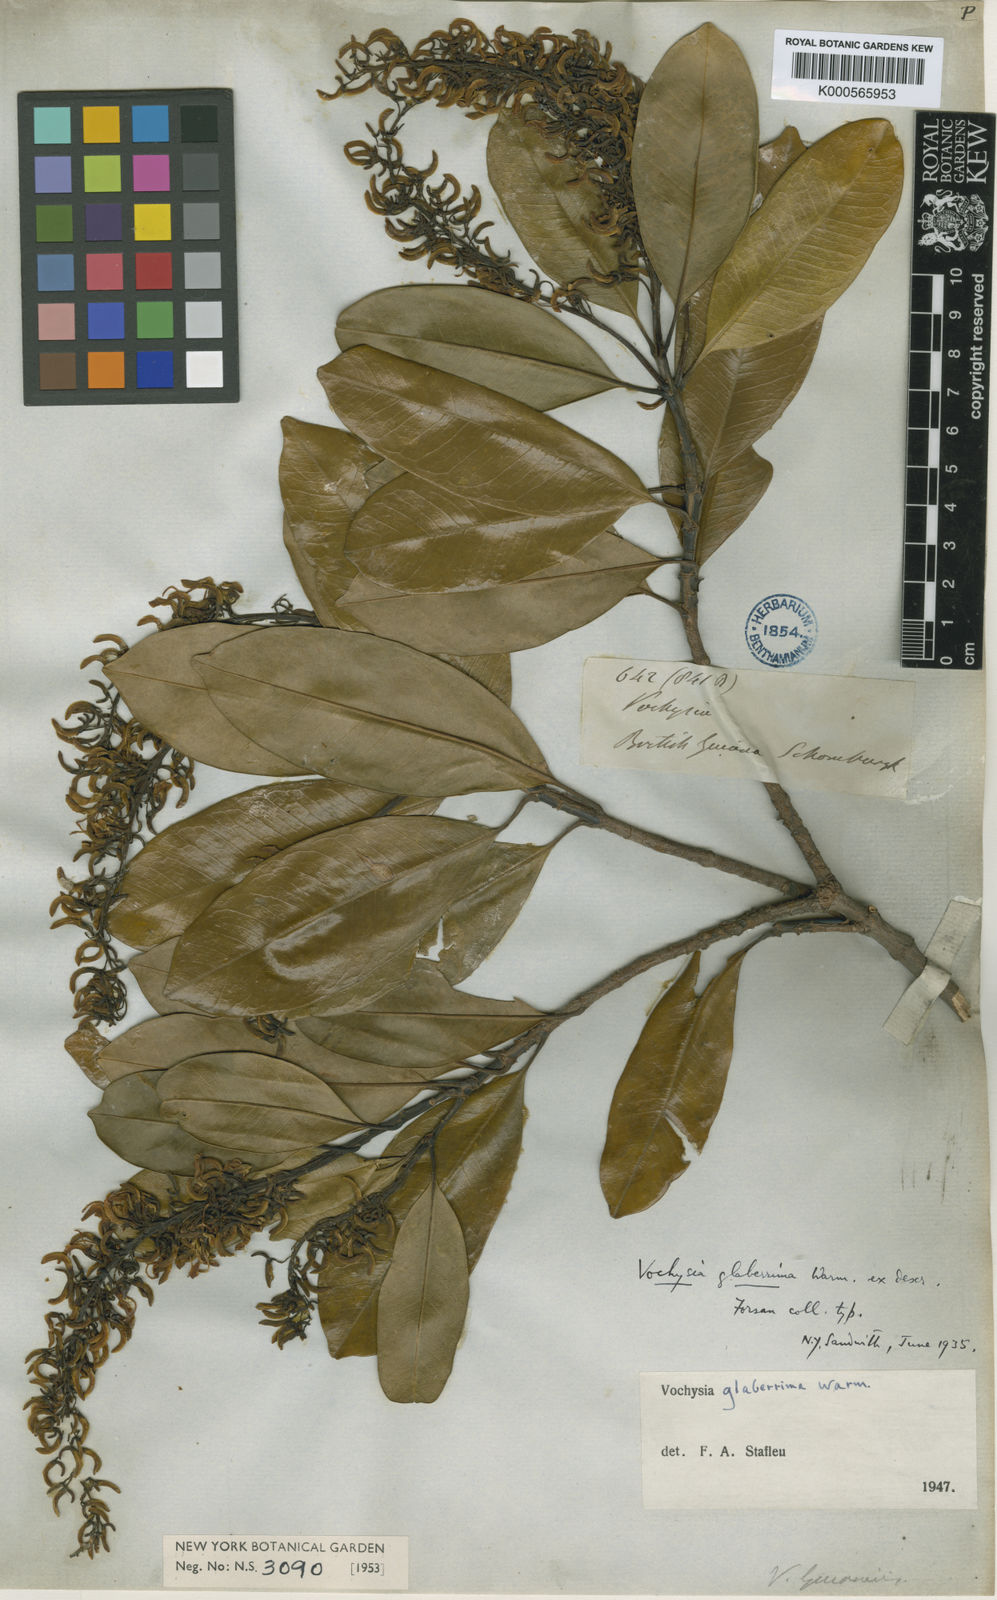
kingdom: Plantae
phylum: Tracheophyta
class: Magnoliopsida
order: Myrtales
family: Vochysiaceae
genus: Vochysia
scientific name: Vochysia glaberrima
